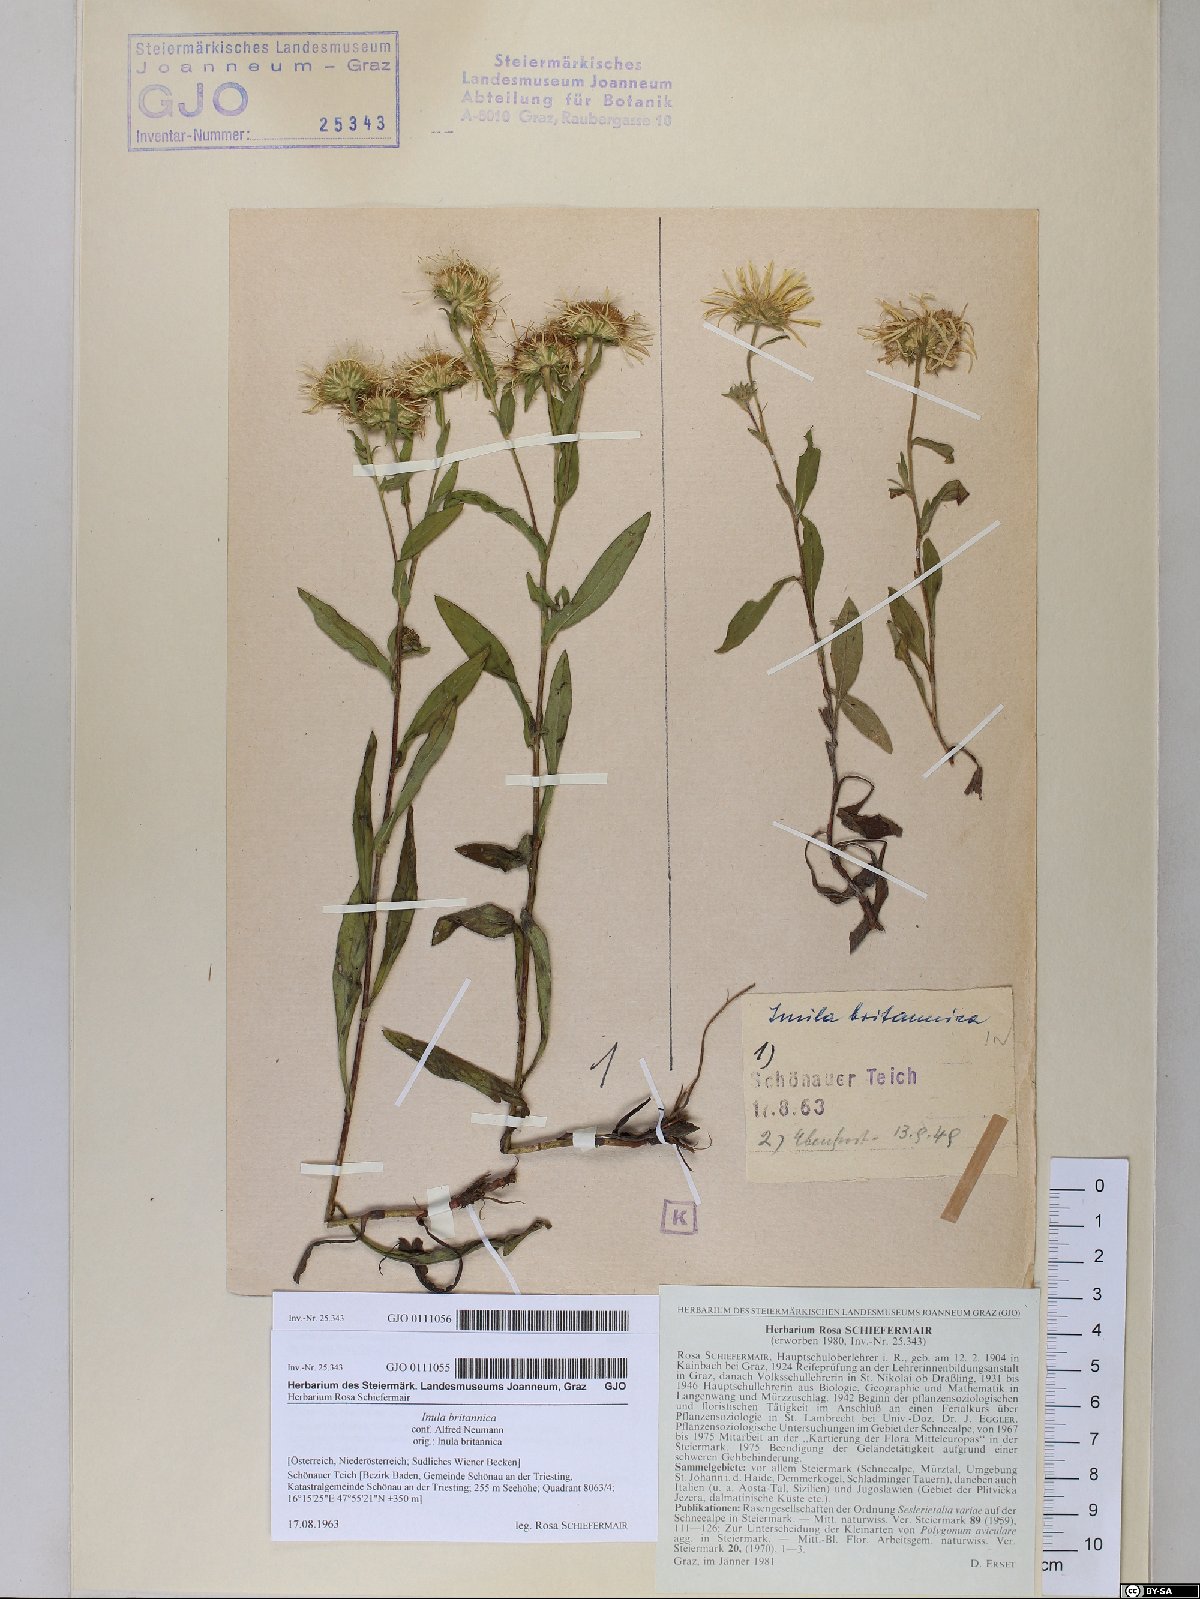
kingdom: Plantae
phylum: Tracheophyta
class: Magnoliopsida
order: Asterales
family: Asteraceae
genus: Pentanema
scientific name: Pentanema britannicum
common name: British elecampane
